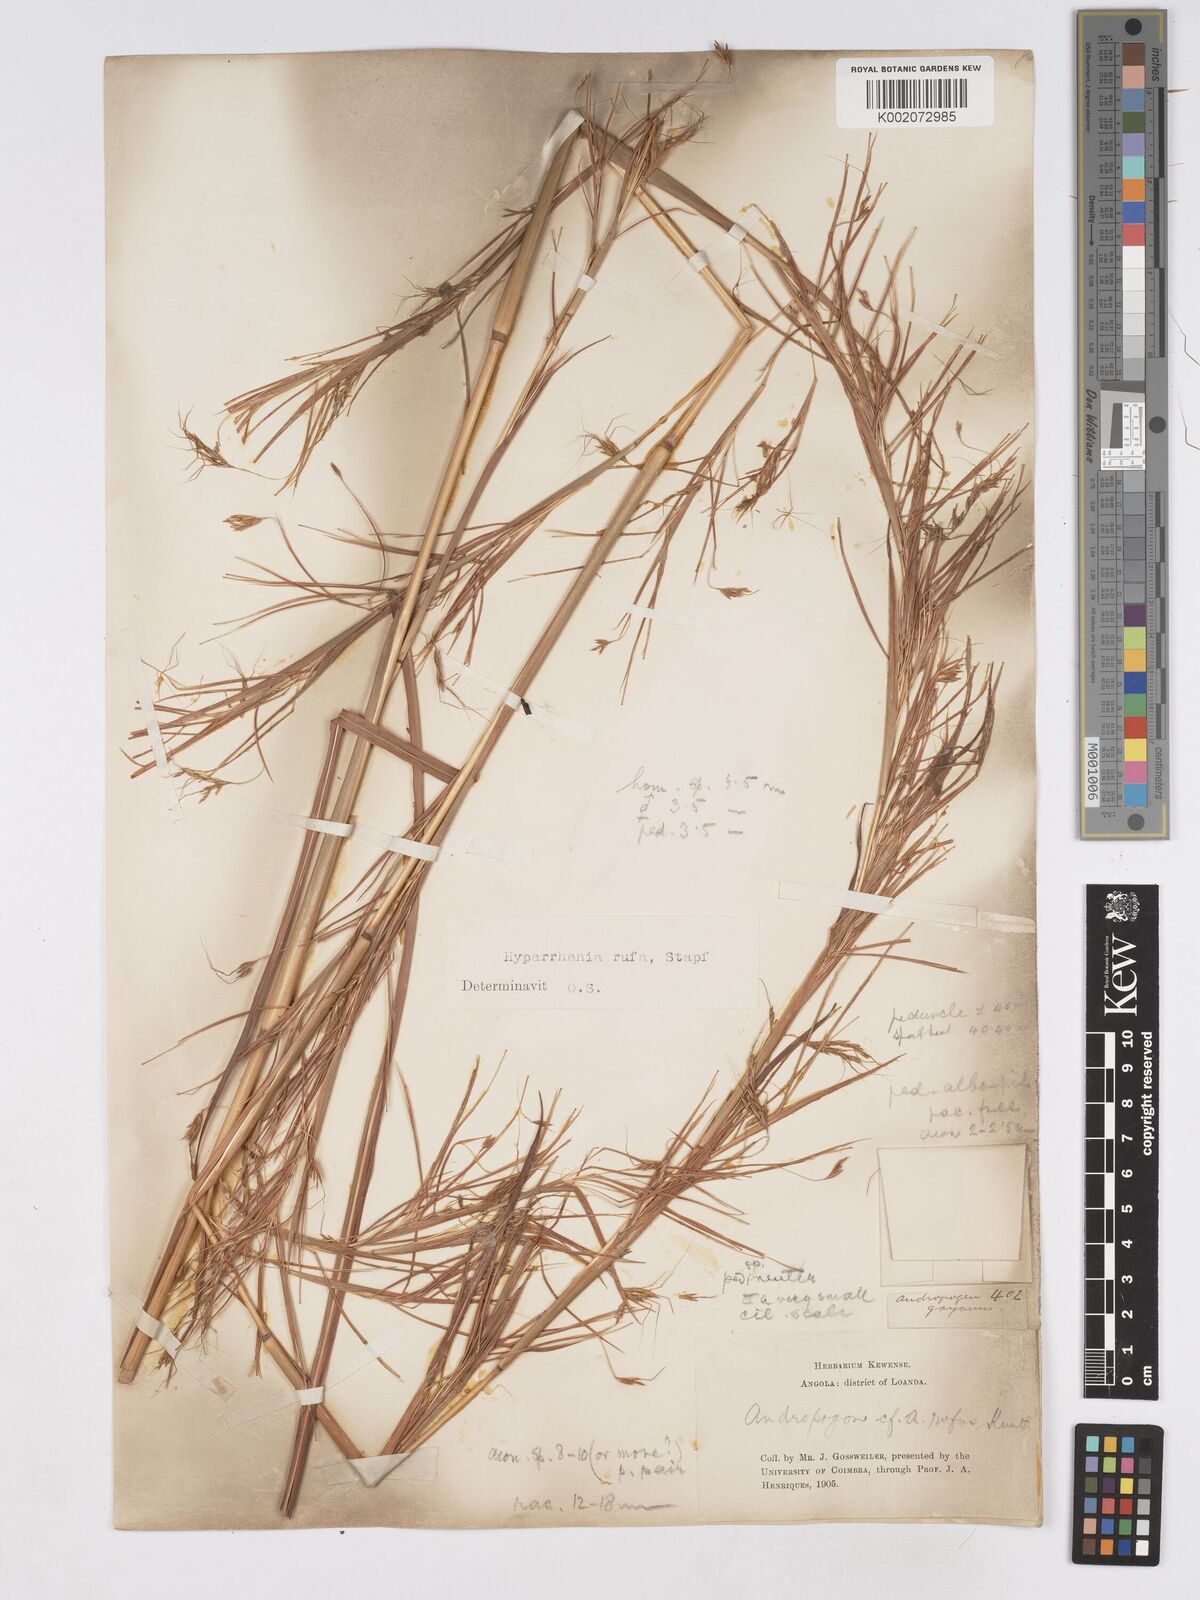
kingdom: Plantae
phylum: Tracheophyta
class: Liliopsida
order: Poales
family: Poaceae
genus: Hyparrhenia
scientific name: Hyparrhenia rufa
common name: Jaraguagrass
